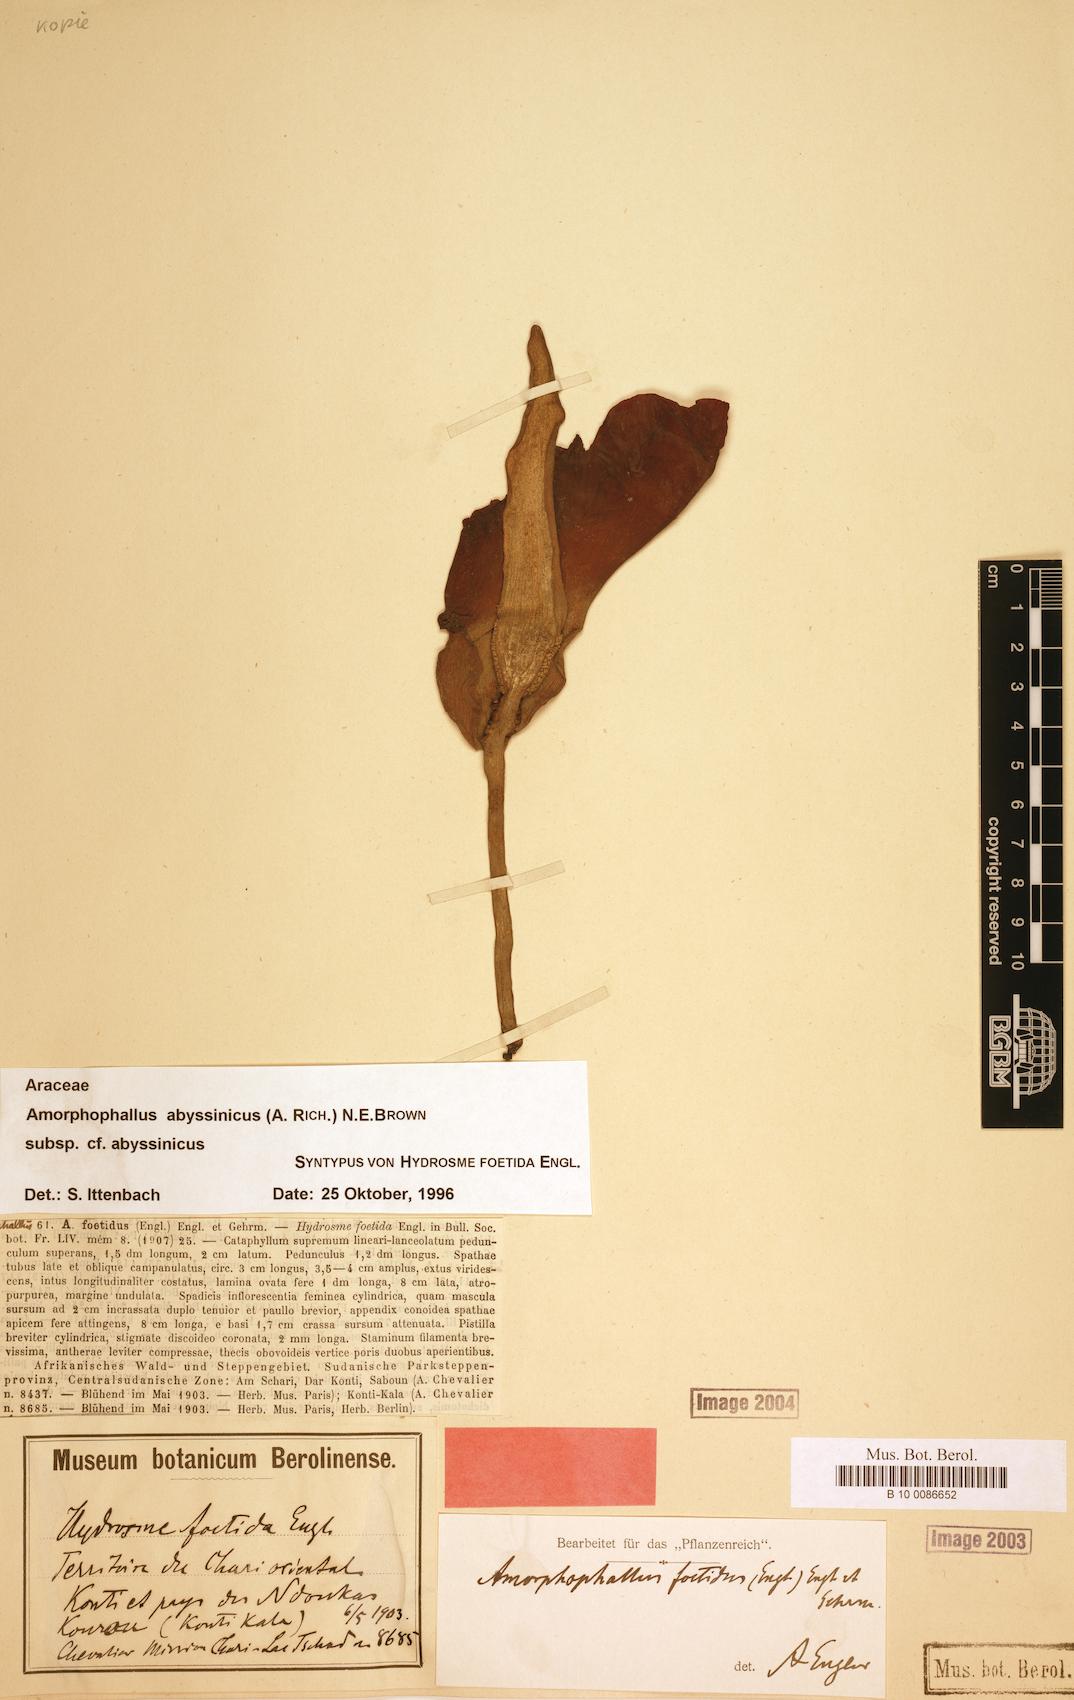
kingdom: Plantae
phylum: Tracheophyta
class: Liliopsida
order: Alismatales
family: Araceae
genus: Amorphophallus
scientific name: Amorphophallus abyssinicus
